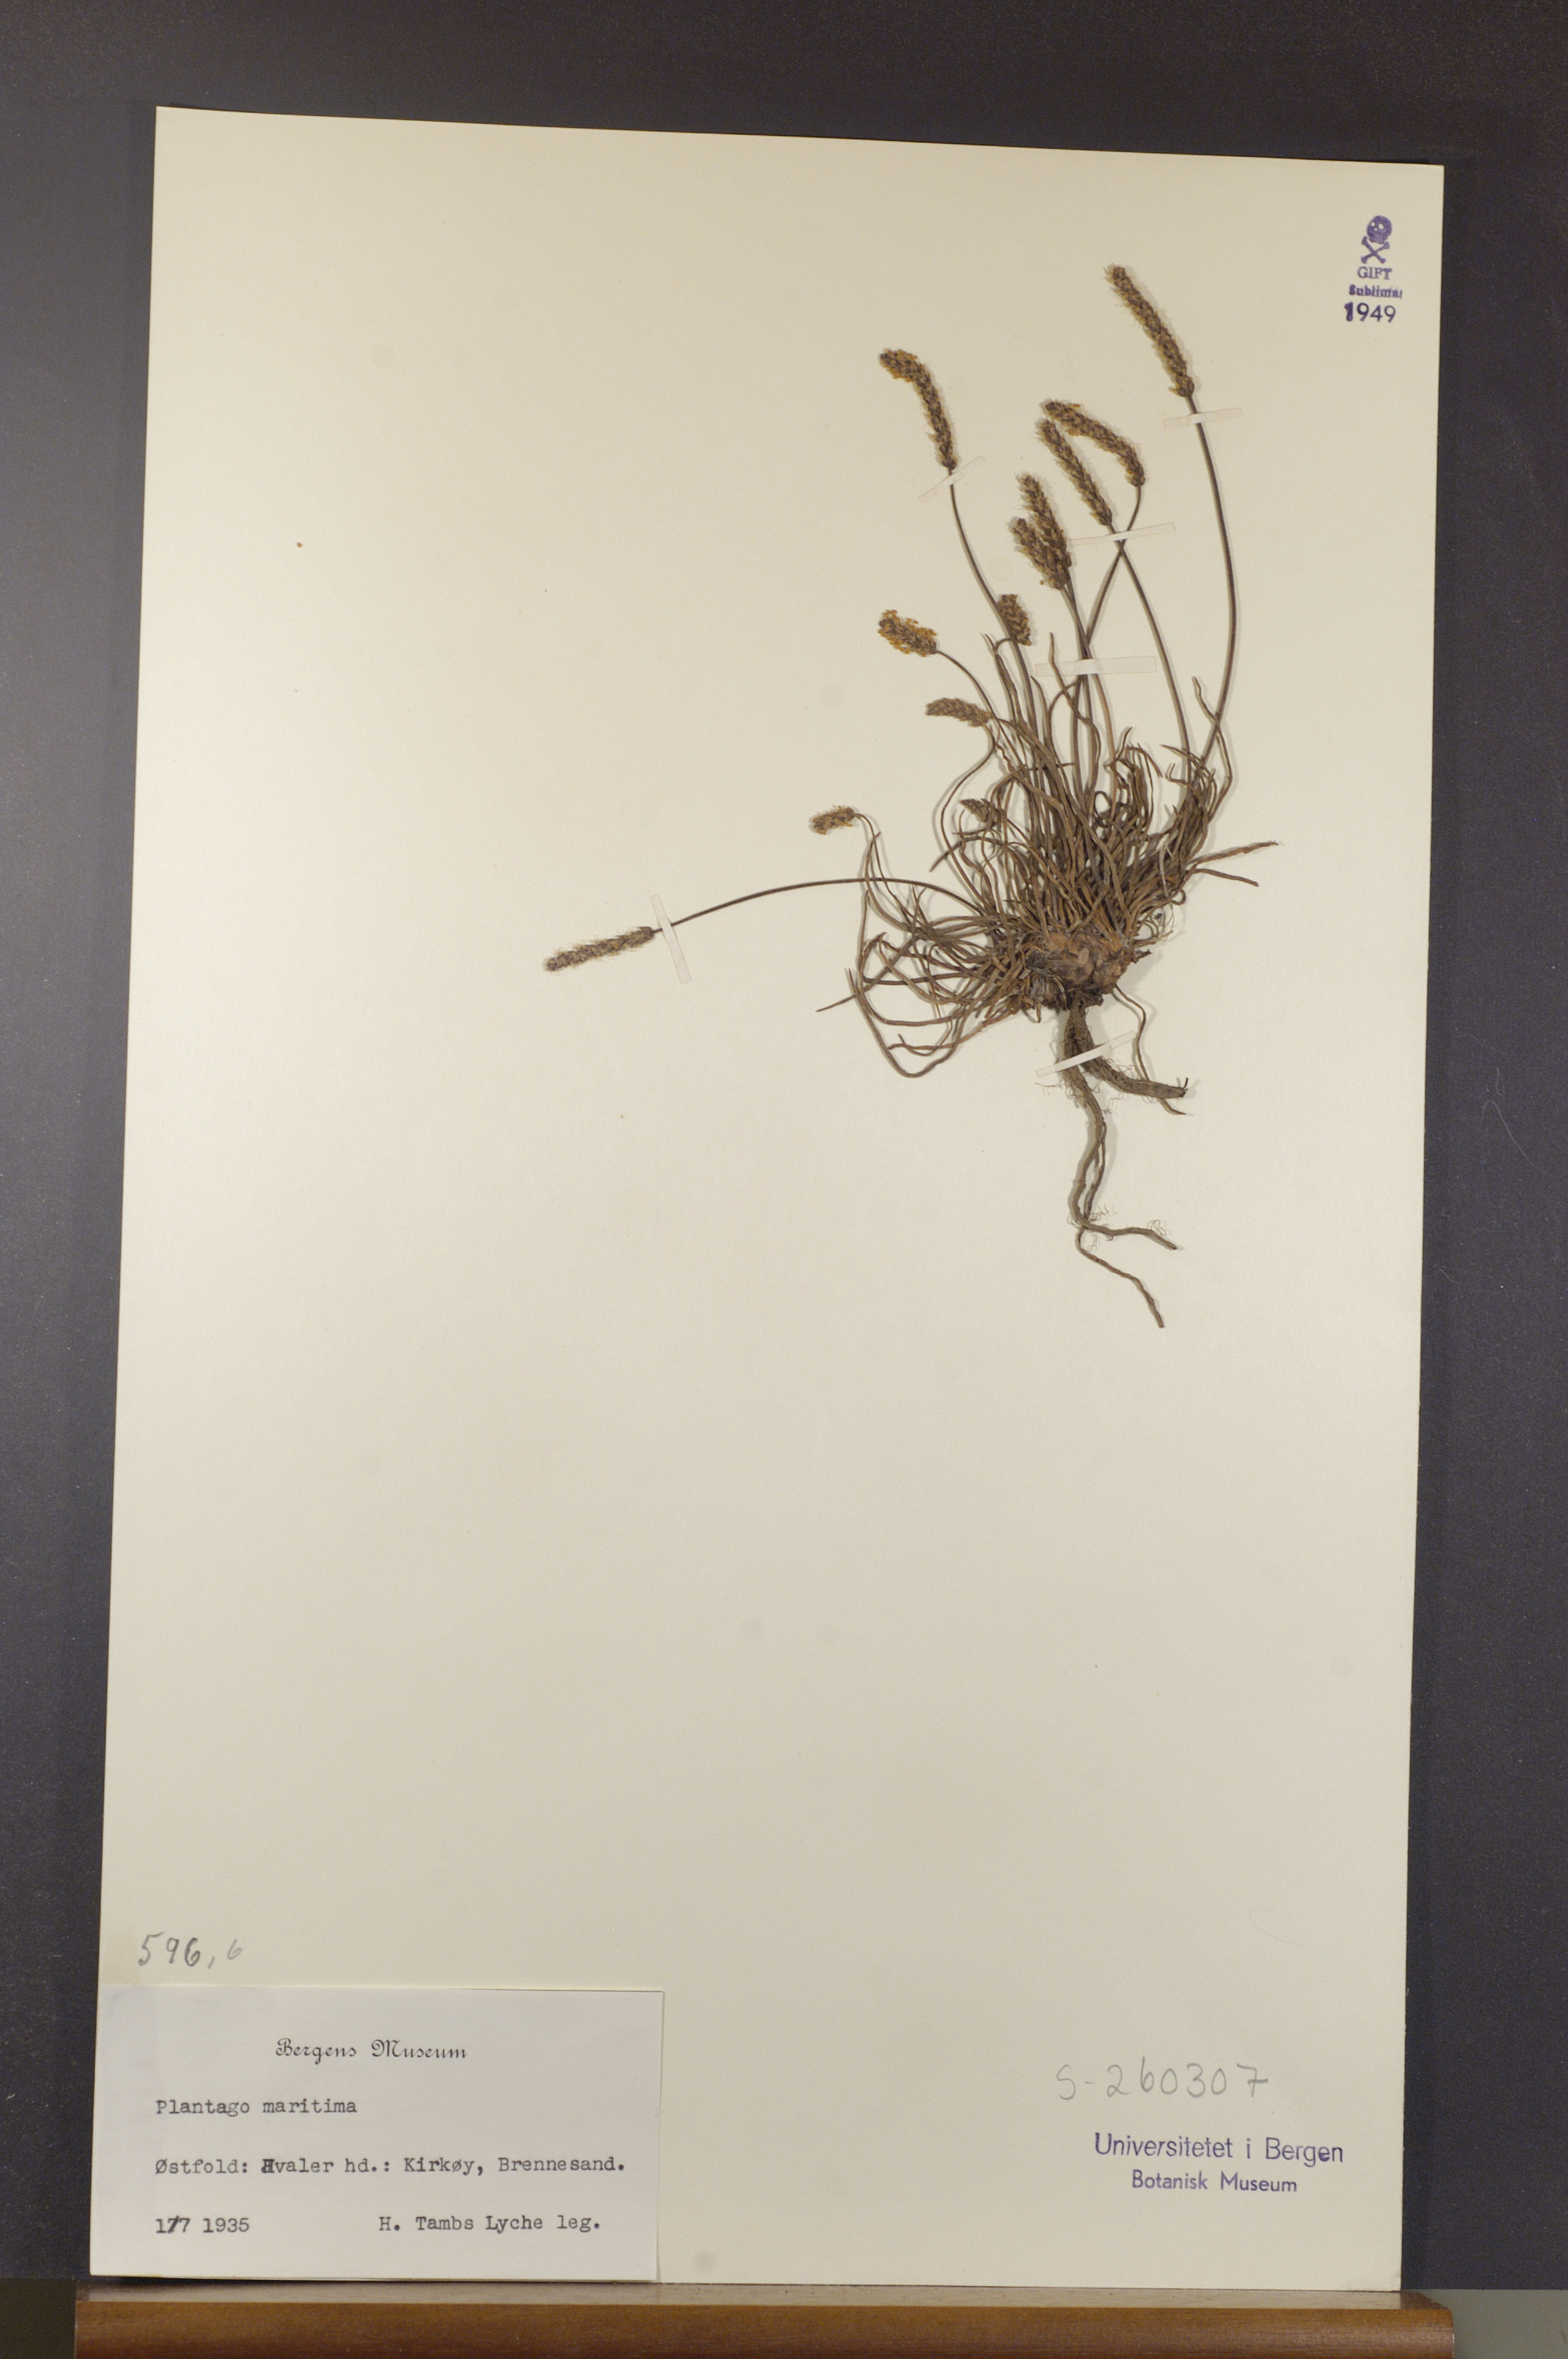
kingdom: Plantae
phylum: Tracheophyta
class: Magnoliopsida
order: Lamiales
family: Plantaginaceae
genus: Plantago
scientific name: Plantago maritima
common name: Sea plantain
